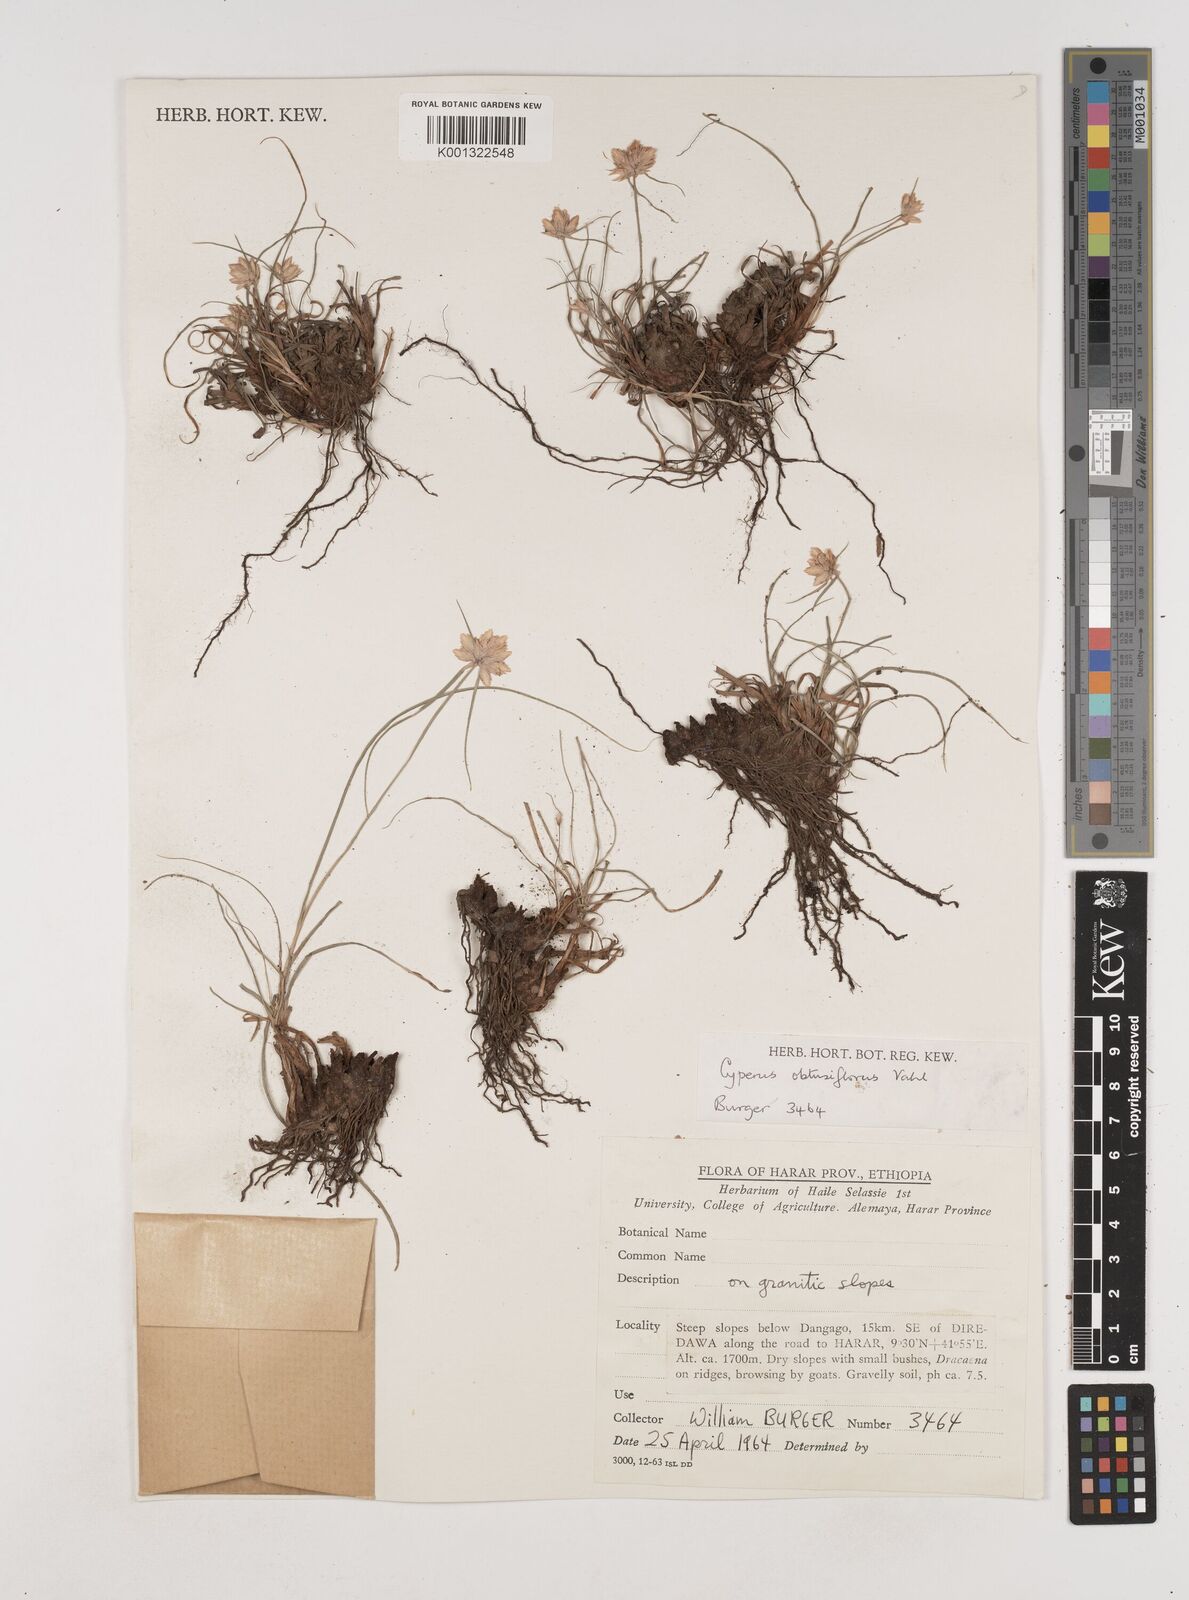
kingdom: Plantae
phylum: Tracheophyta
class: Liliopsida
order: Poales
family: Cyperaceae
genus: Cyperus
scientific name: Cyperus niveus
